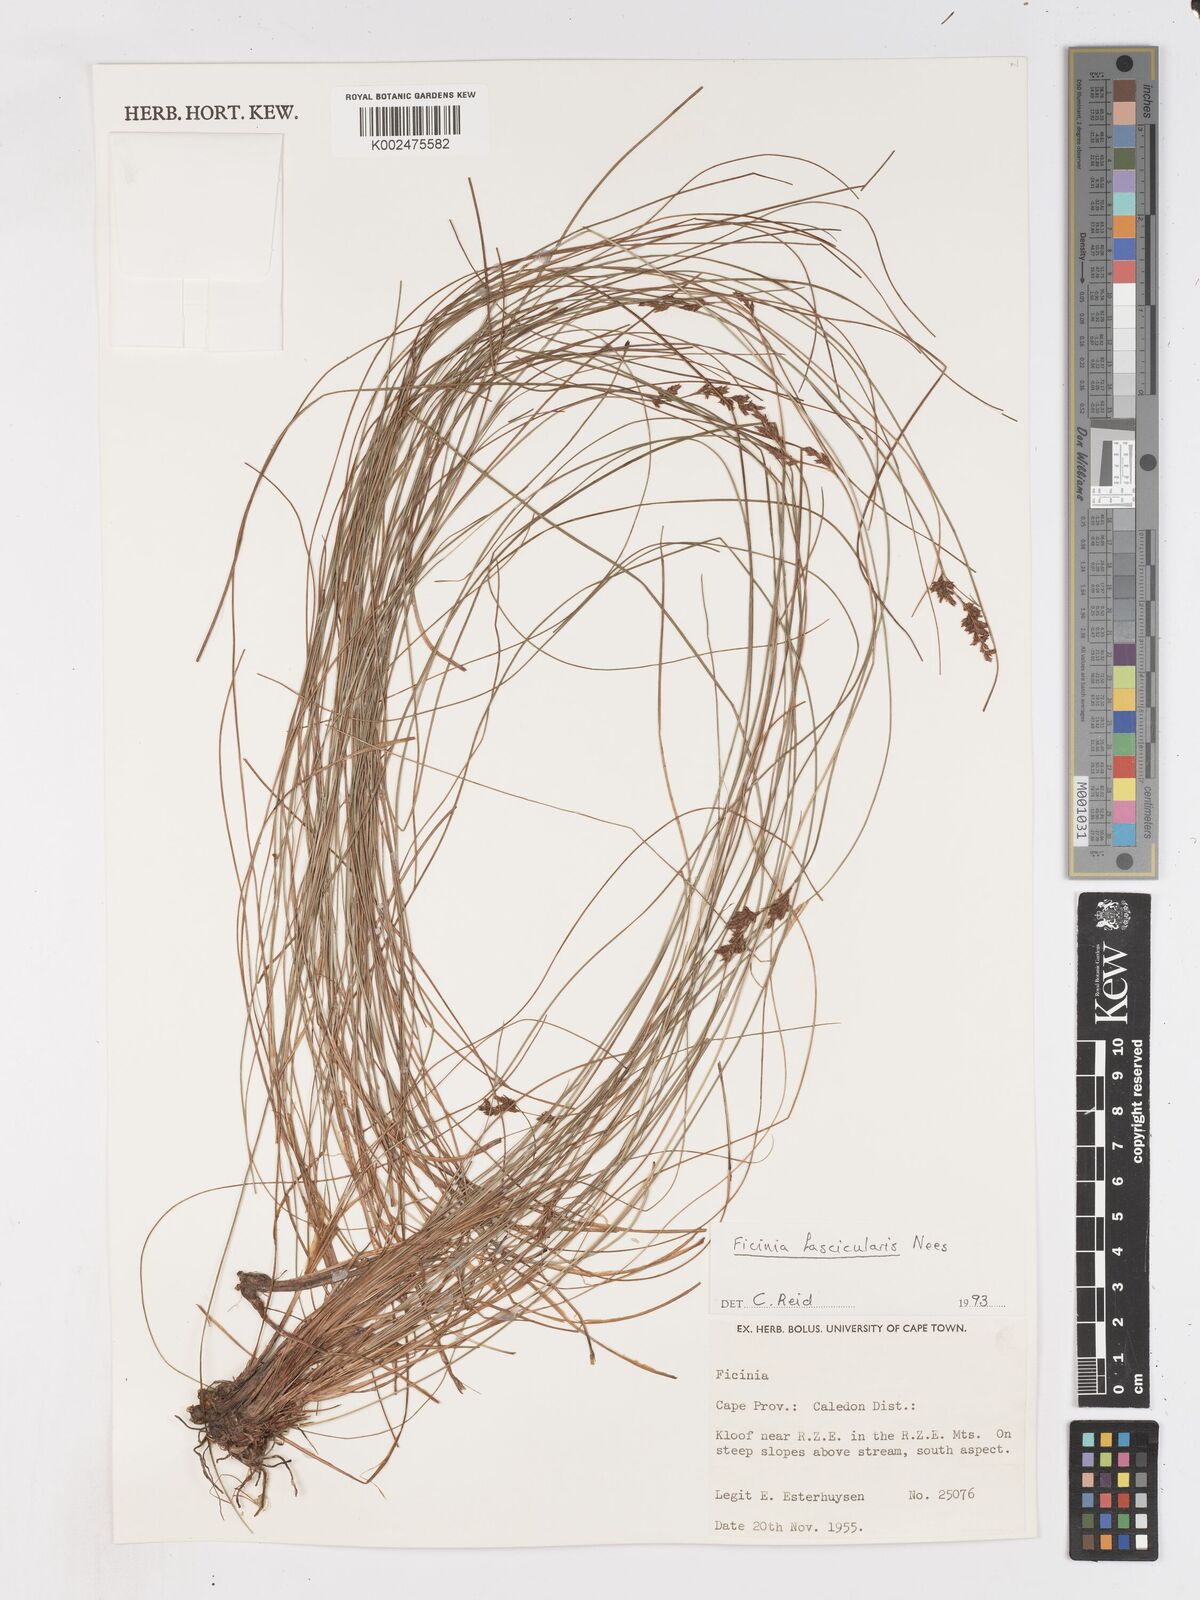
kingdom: Plantae
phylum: Tracheophyta
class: Liliopsida
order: Poales
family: Cyperaceae
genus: Ficinia
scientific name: Ficinia fascicularis
